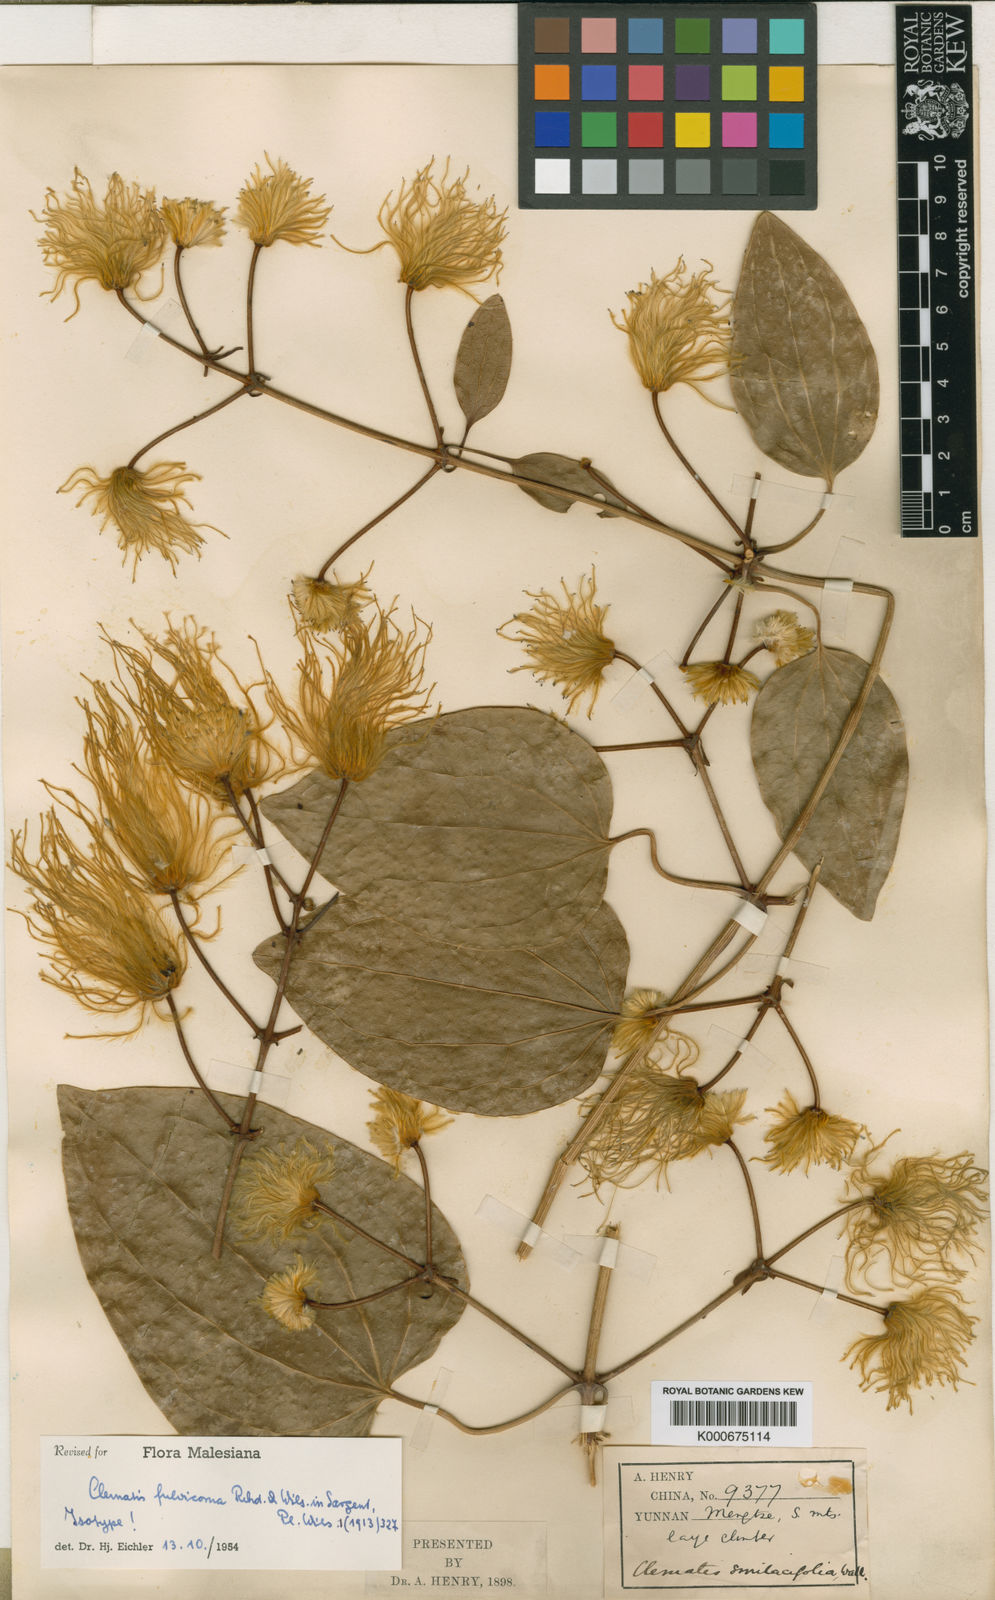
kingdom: Plantae
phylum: Tracheophyta
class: Magnoliopsida
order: Ranunculales
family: Ranunculaceae
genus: Clematis
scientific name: Clematis fulvicoma
